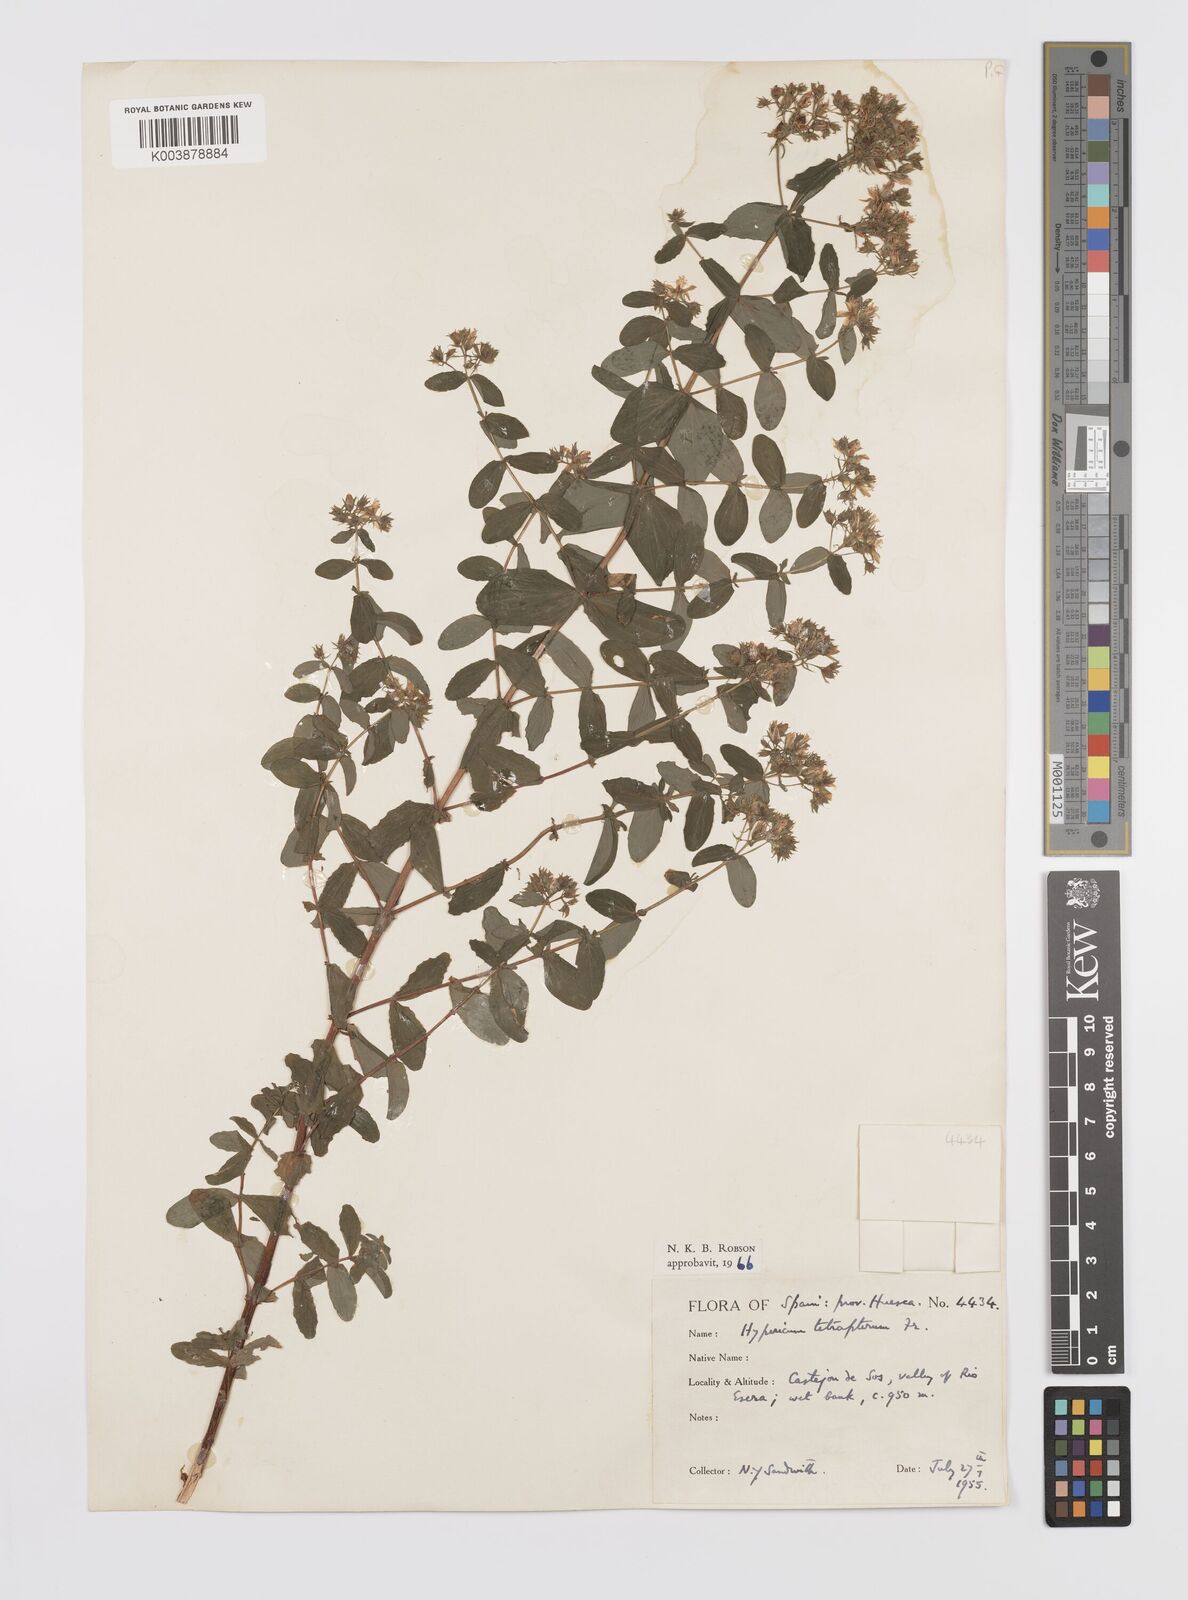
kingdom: Plantae
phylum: Tracheophyta
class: Magnoliopsida
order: Malpighiales
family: Hypericaceae
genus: Hypericum
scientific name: Hypericum tetrapterum
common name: Square-stalked st. john's-wort
